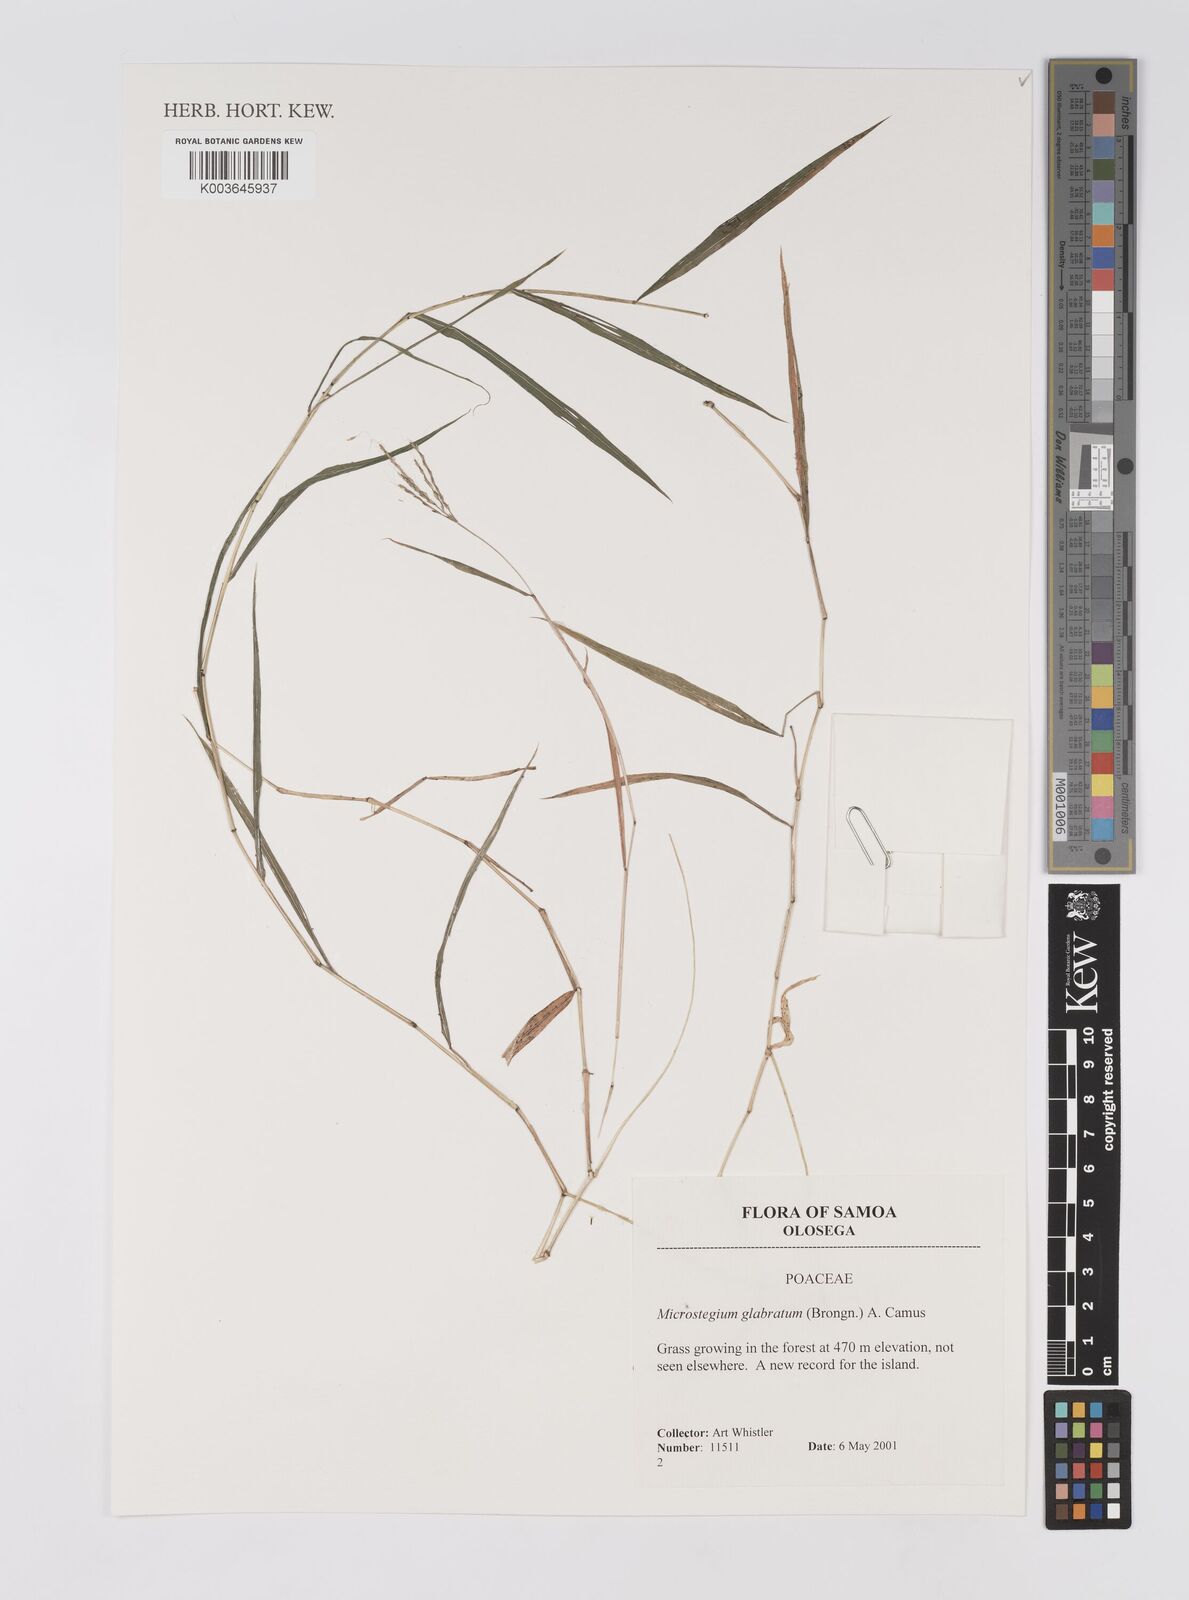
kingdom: Plantae
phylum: Tracheophyta
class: Liliopsida
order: Poales
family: Poaceae
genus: Microstegium
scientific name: Microstegium glabratum
